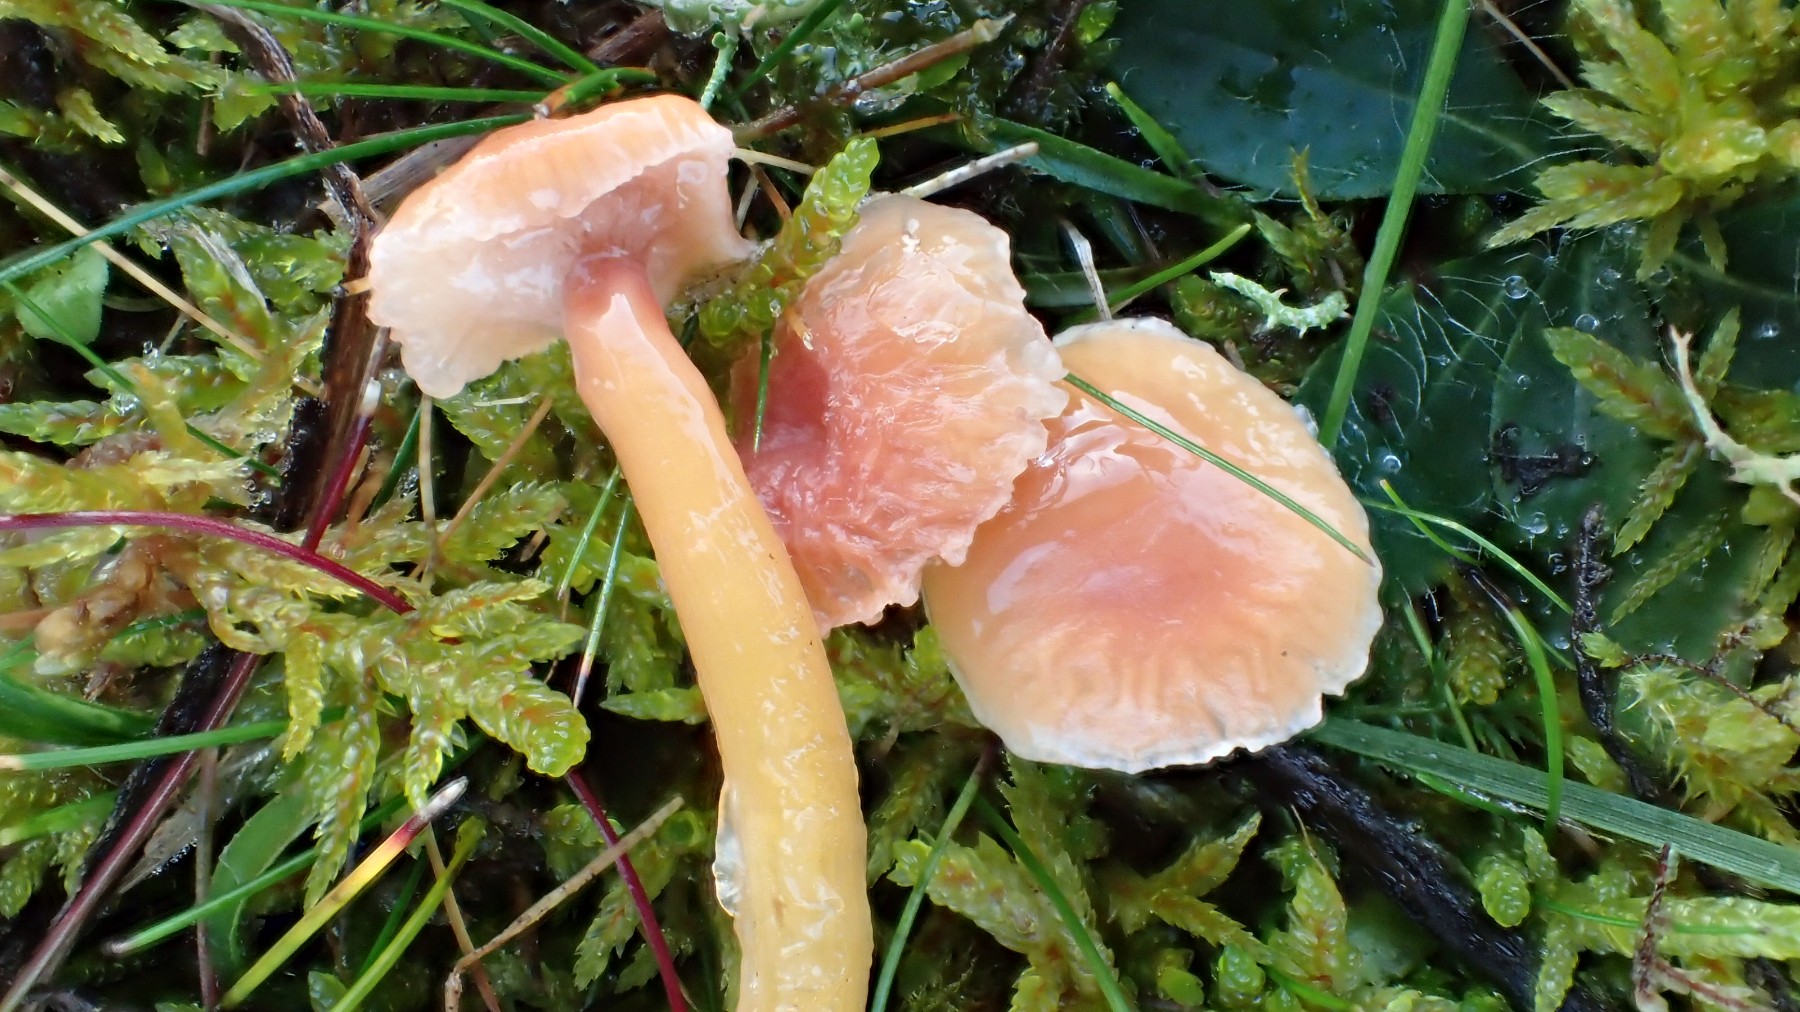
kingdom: Fungi
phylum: Basidiomycota
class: Agaricomycetes
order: Agaricales
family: Hygrophoraceae
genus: Gliophorus
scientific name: Gliophorus laetus
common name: brusk-vokshat
